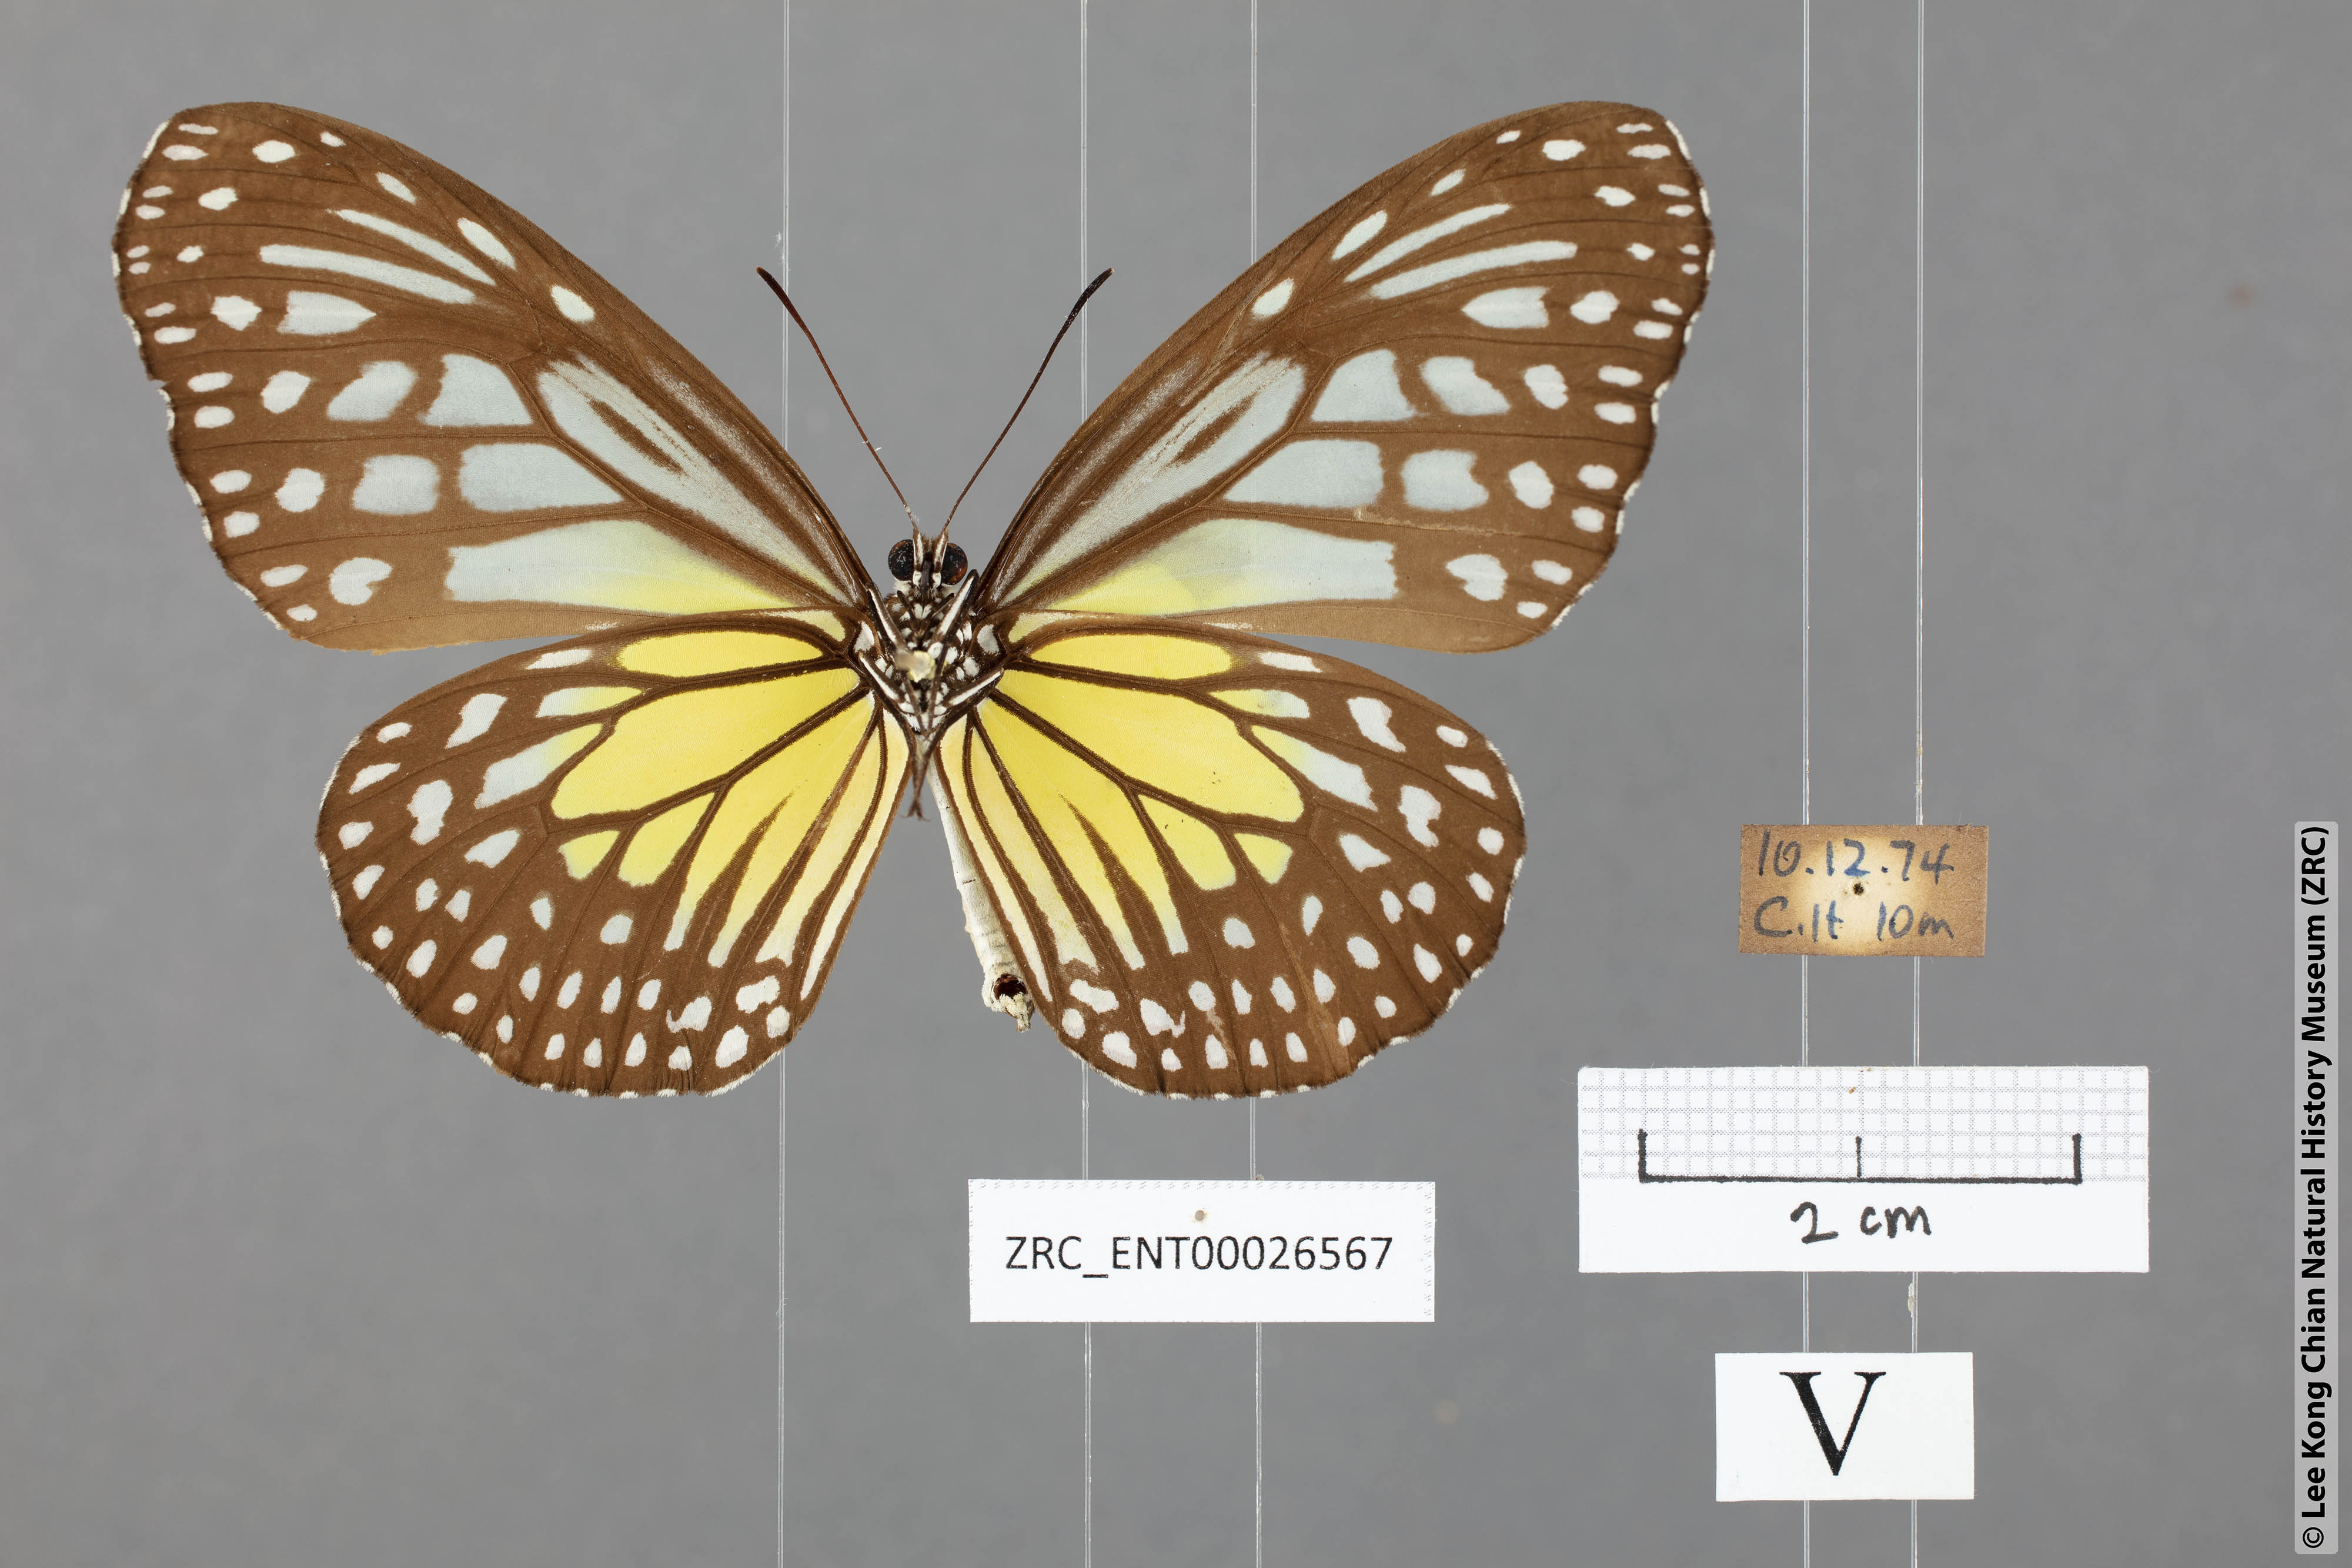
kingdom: Animalia
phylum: Arthropoda
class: Insecta
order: Lepidoptera
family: Nymphalidae
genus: Parantica
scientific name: Parantica aspasia
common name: Yellow glassy tiger
